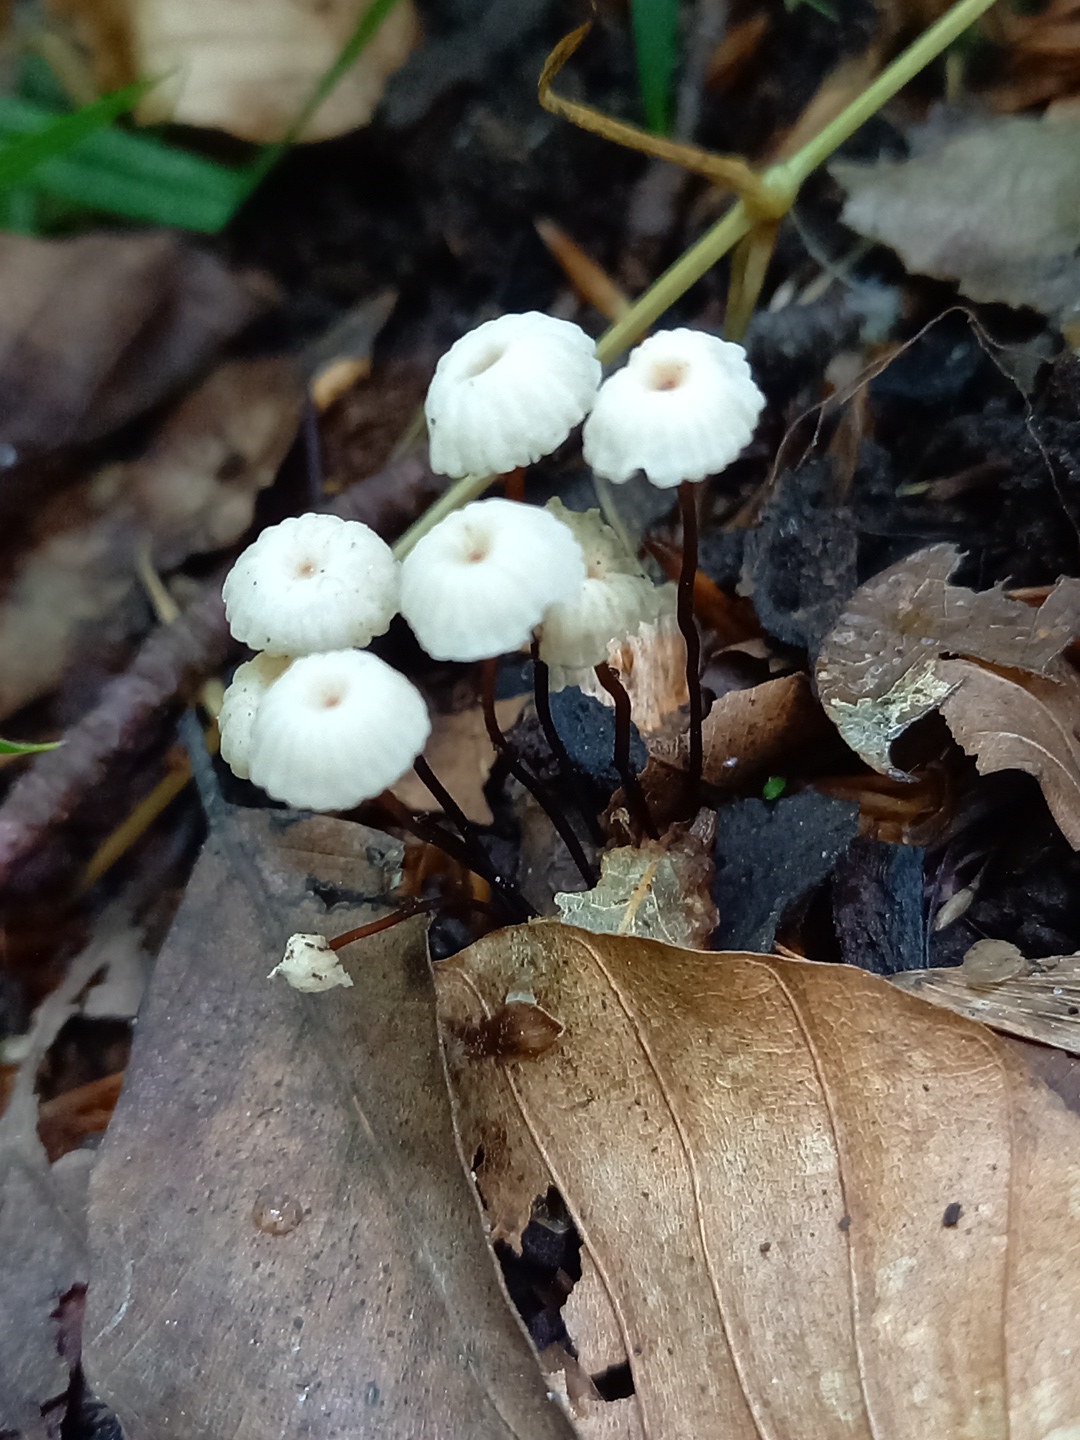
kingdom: Fungi
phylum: Basidiomycota
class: Agaricomycetes
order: Agaricales
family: Marasmiaceae
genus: Marasmius
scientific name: Marasmius rotula
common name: hjul-bruskhat
